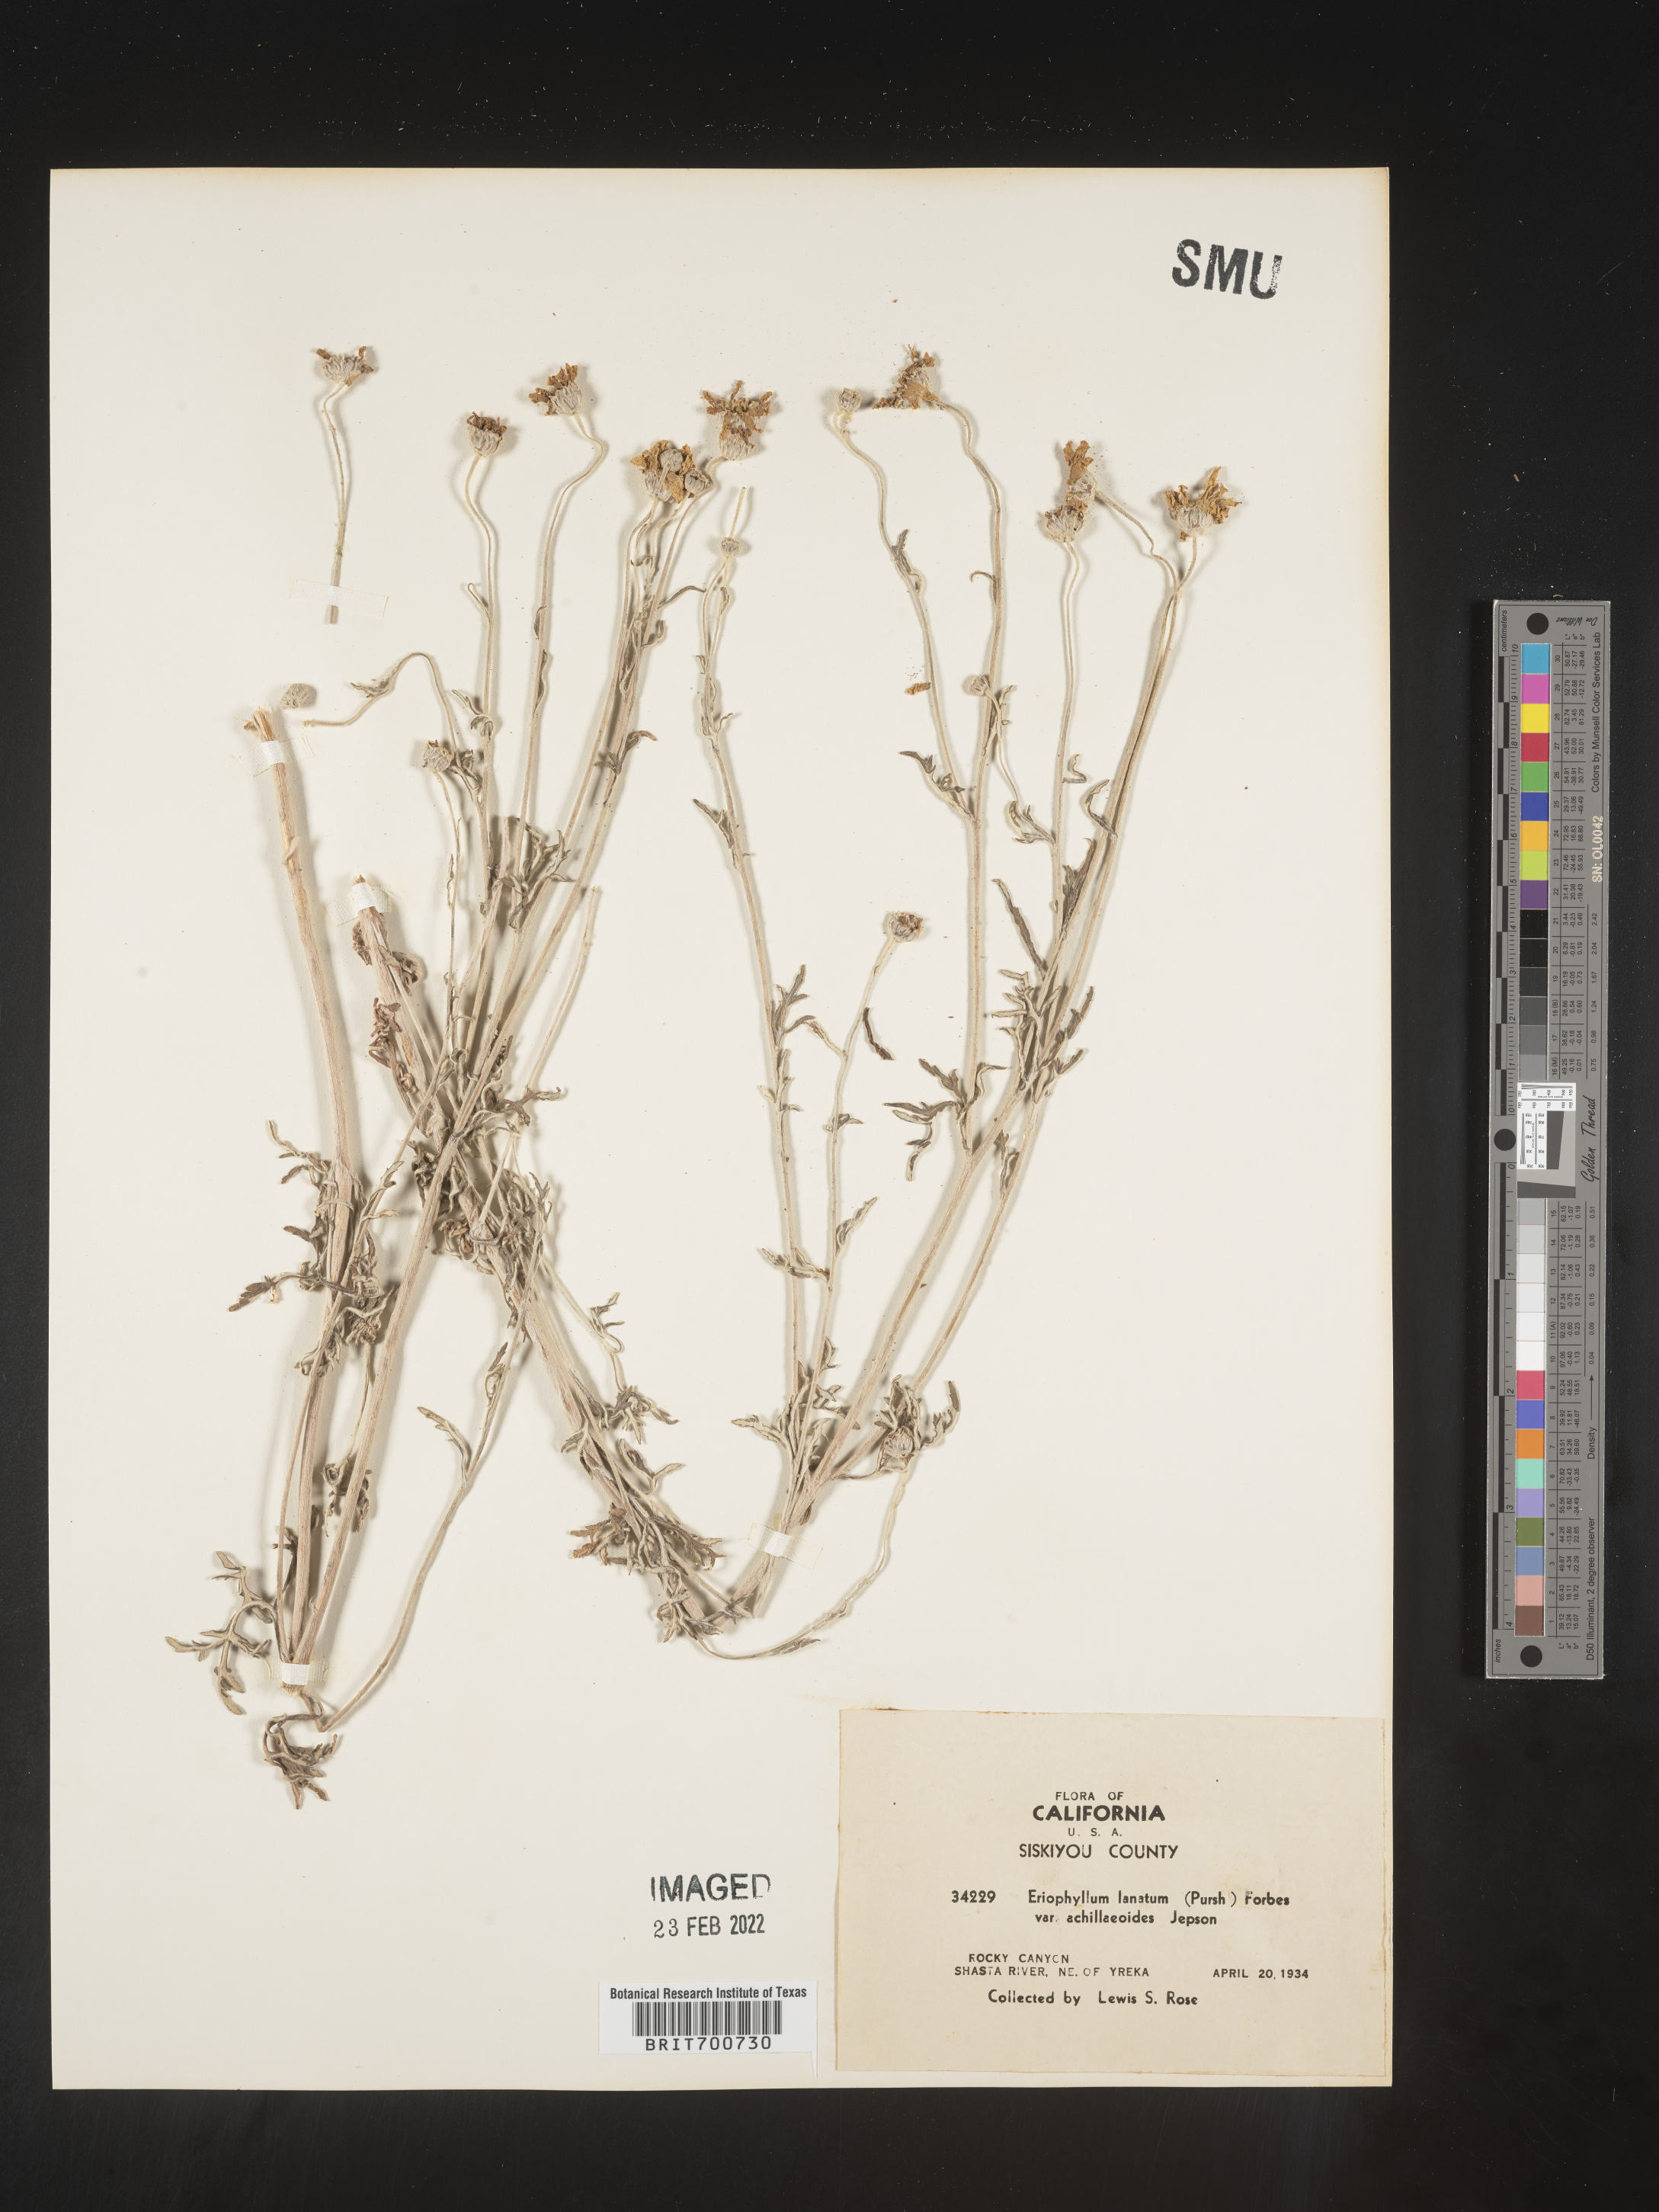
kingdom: Plantae
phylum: Tracheophyta
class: Magnoliopsida
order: Asterales
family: Asteraceae
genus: Eriophyllum
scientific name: Eriophyllum lanatum
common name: Common woolly-sunflower
